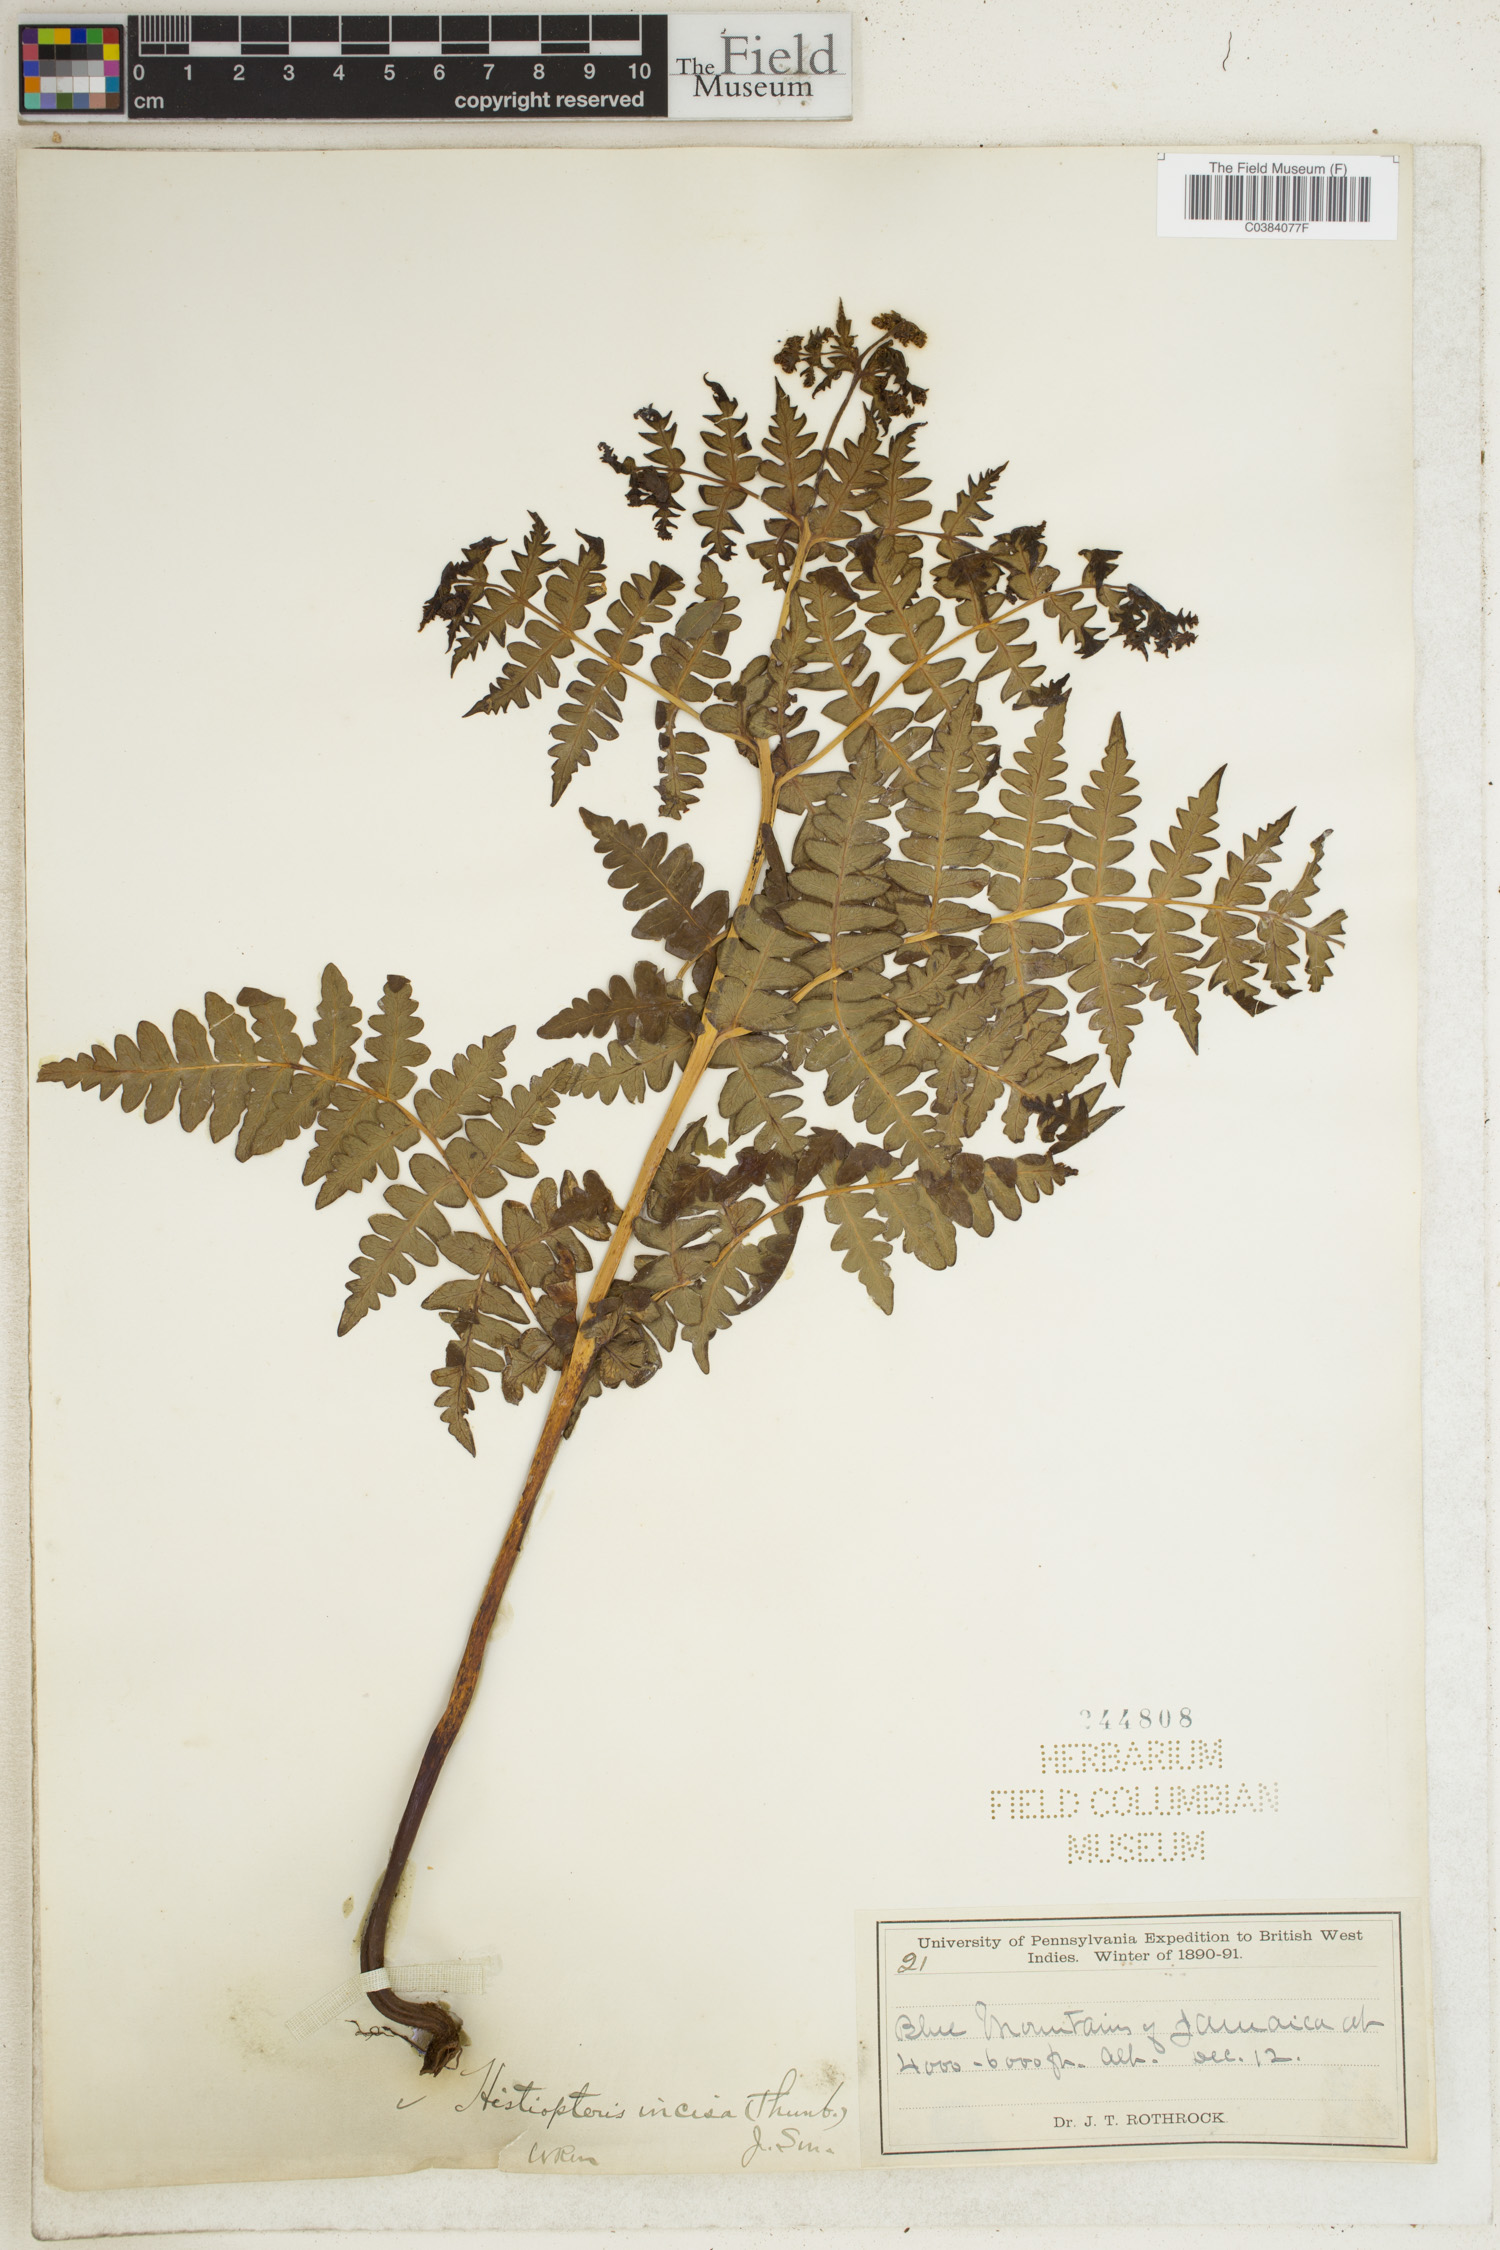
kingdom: Plantae
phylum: Tracheophyta
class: Polypodiopsida
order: Polypodiales
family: Dennstaedtiaceae
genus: Histiopteris
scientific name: Histiopteris incisa
